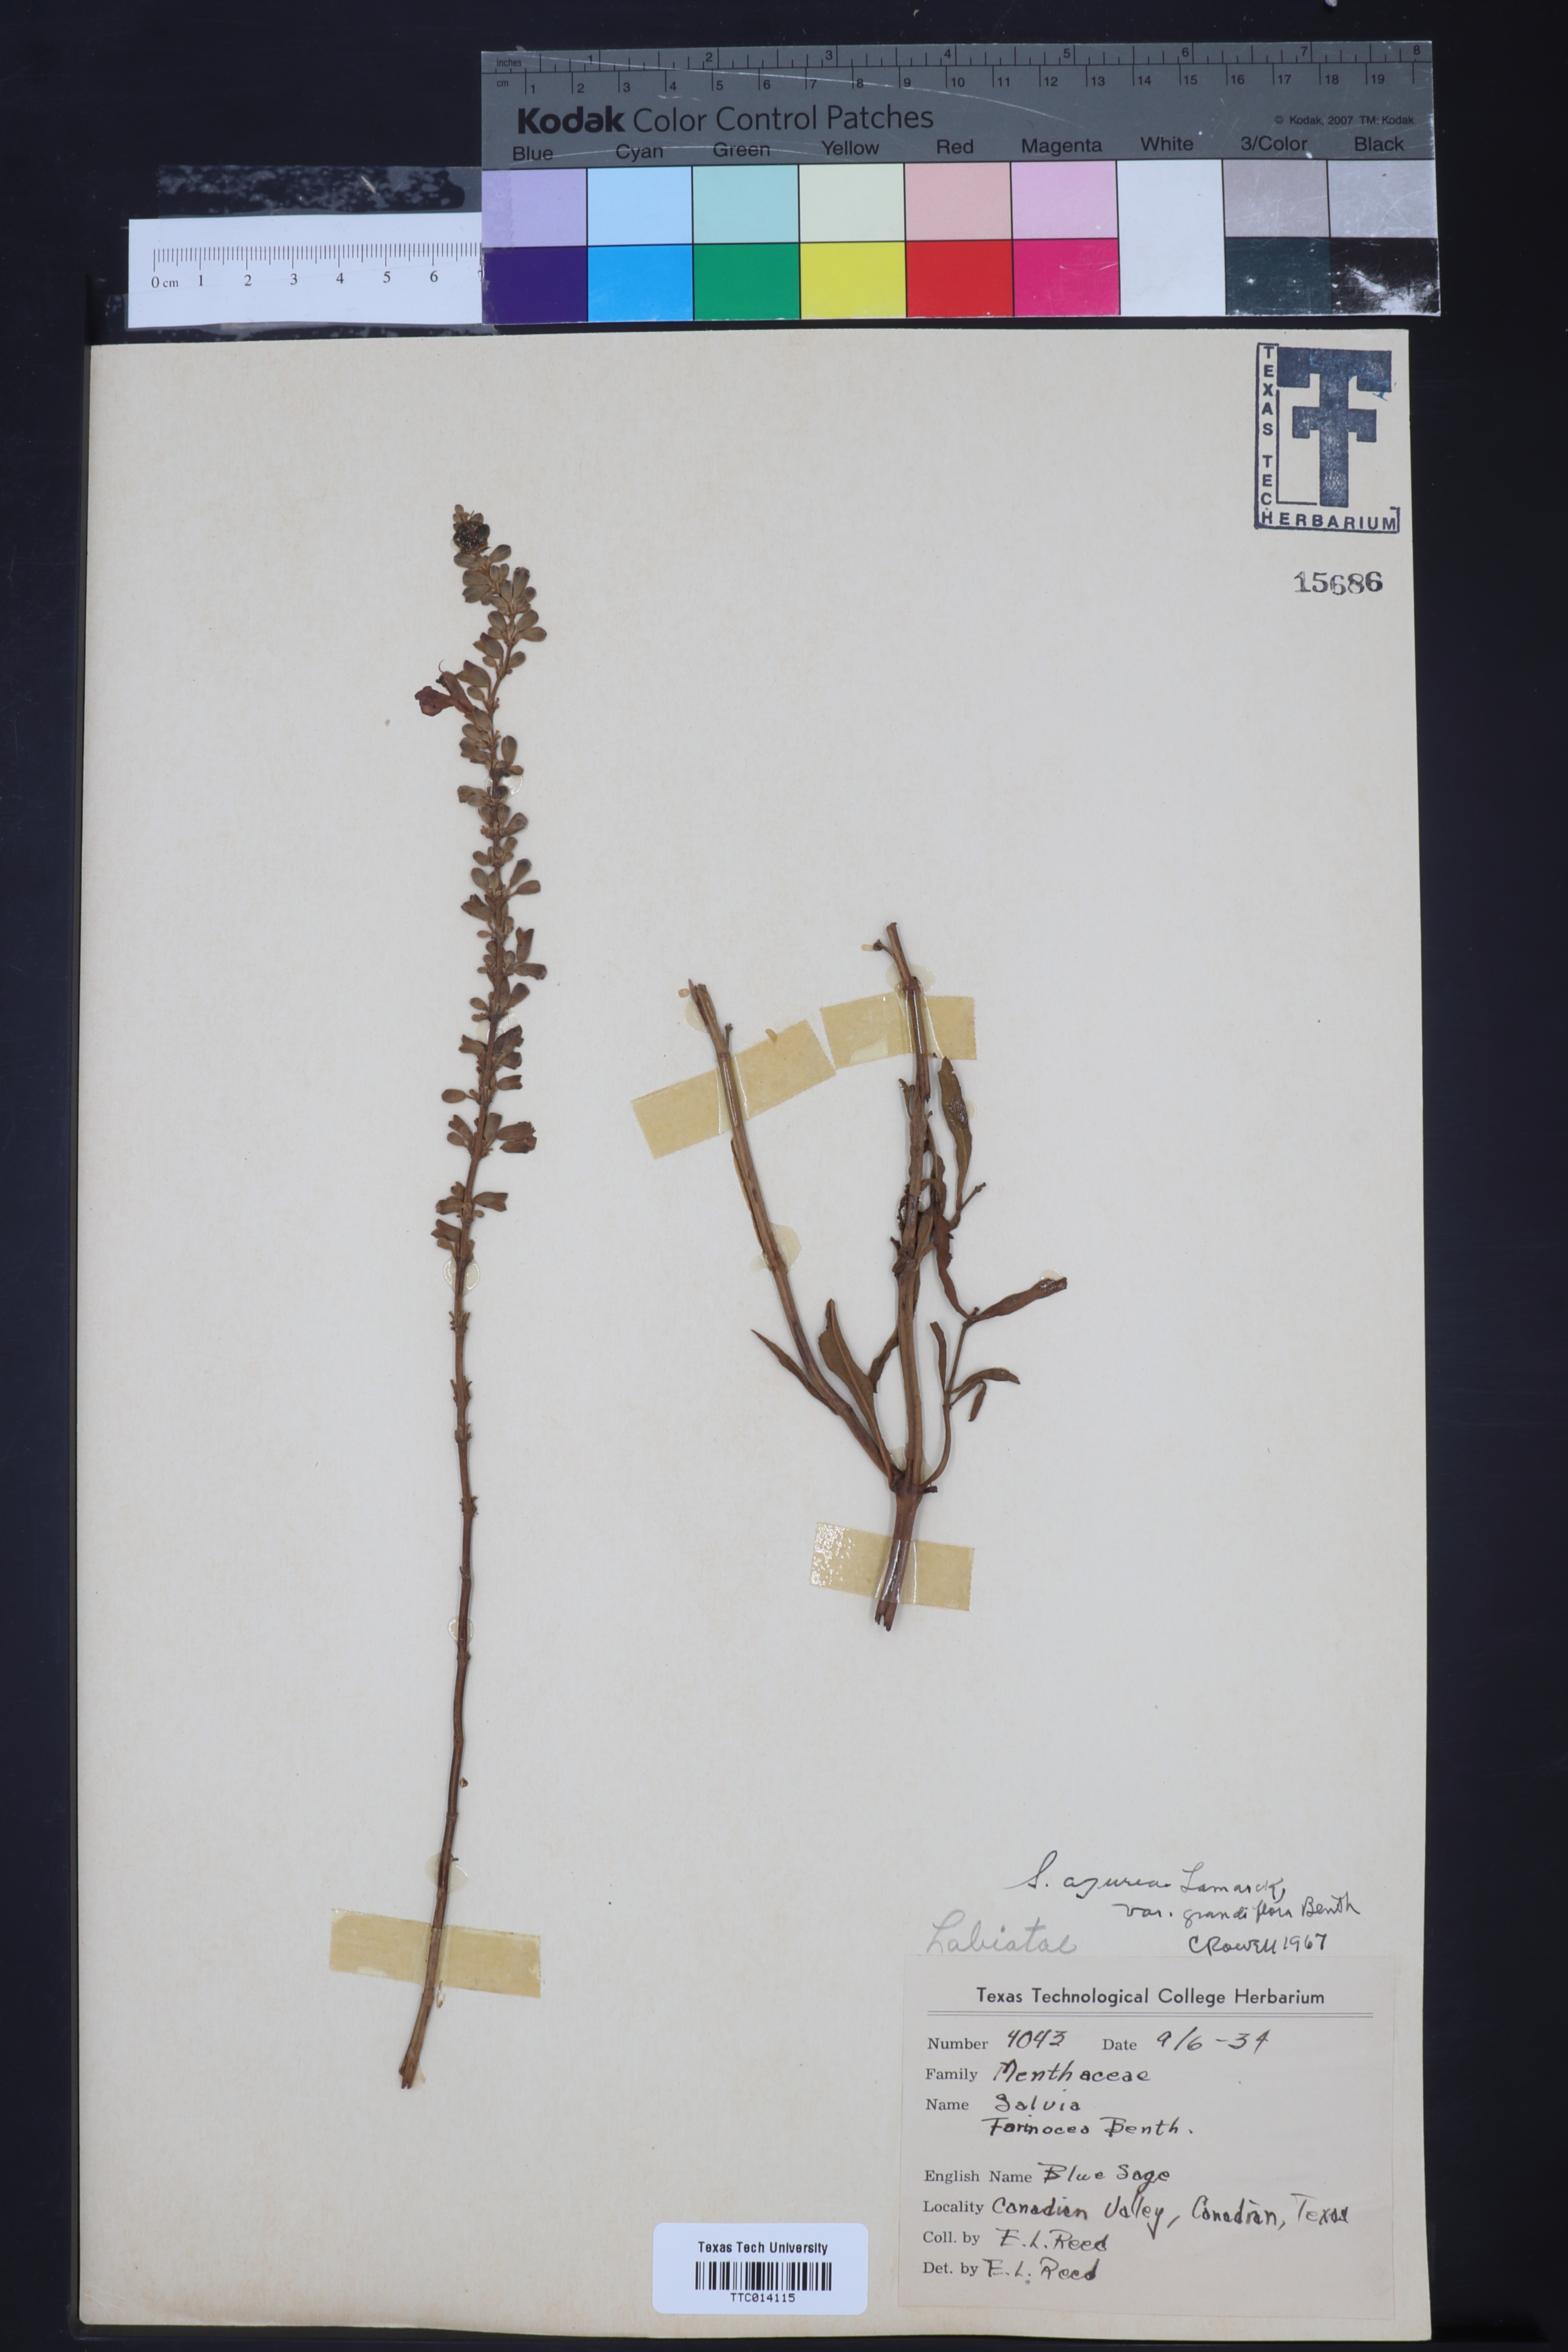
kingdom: Plantae
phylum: Tracheophyta
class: Magnoliopsida
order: Lamiales
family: Lamiaceae
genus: Salvia
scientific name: Salvia azurea
